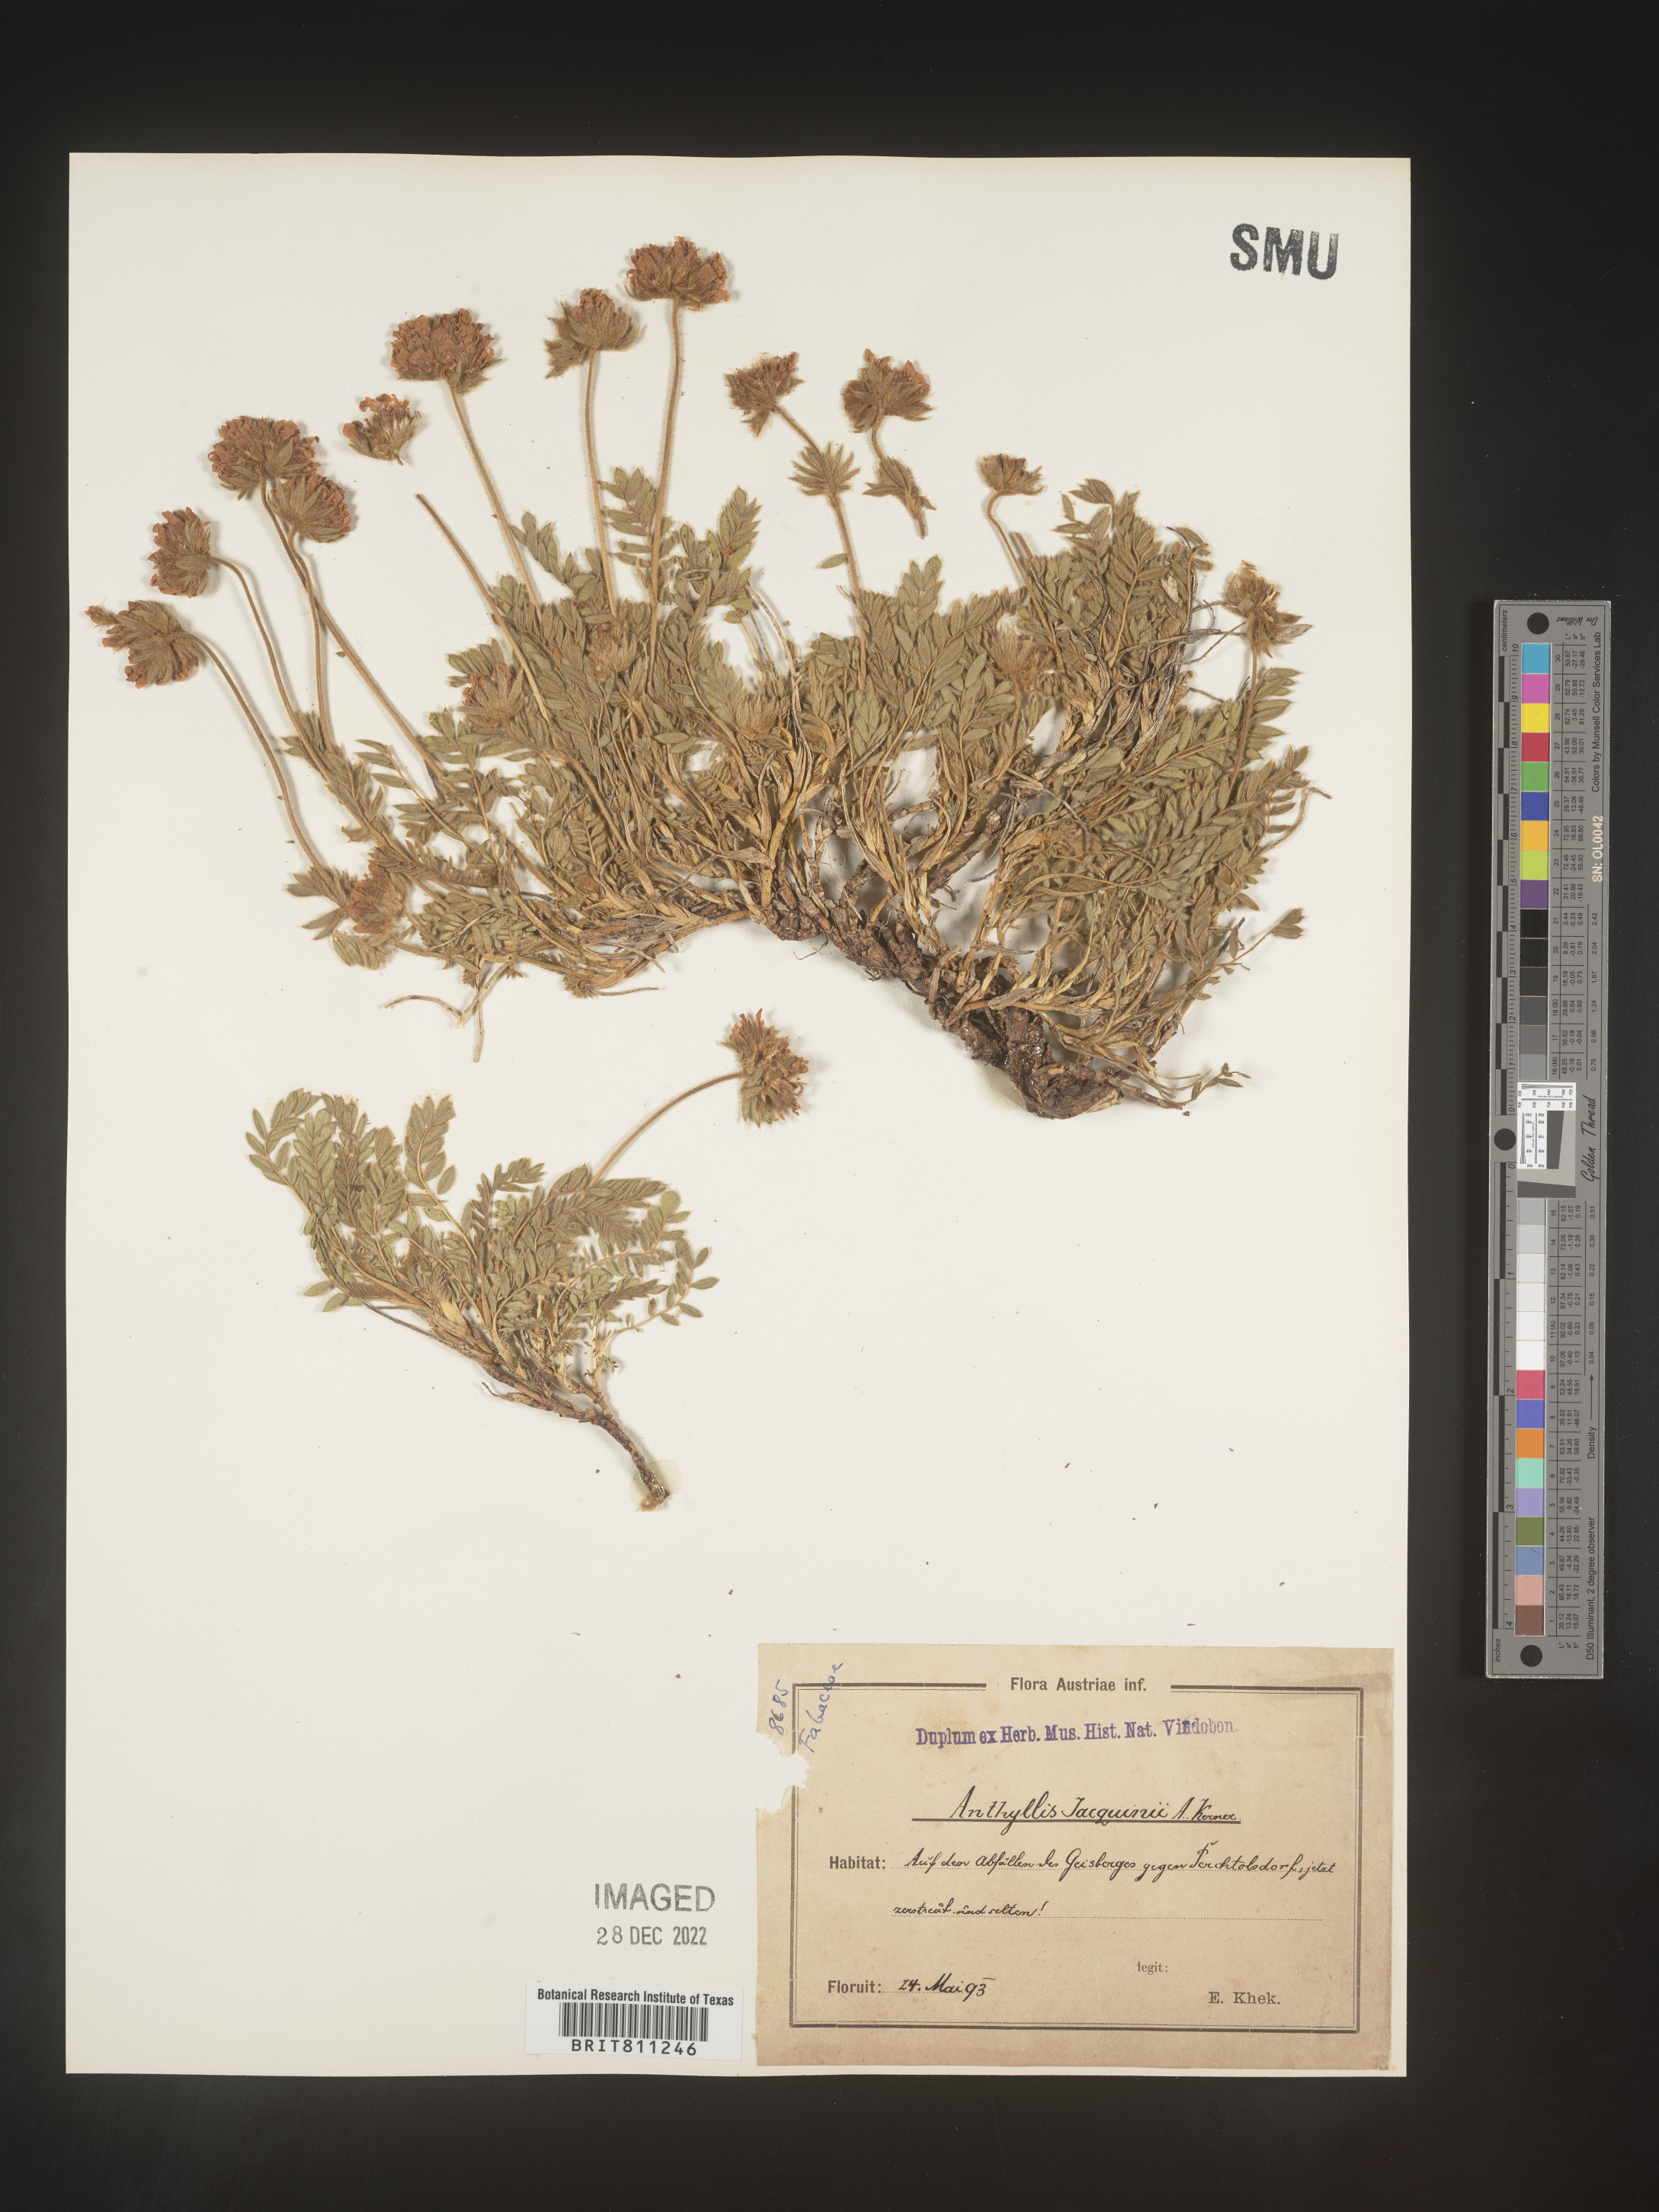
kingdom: Plantae
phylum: Tracheophyta
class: Magnoliopsida
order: Fabales
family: Fabaceae
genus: Anthyllis
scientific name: Anthyllis
